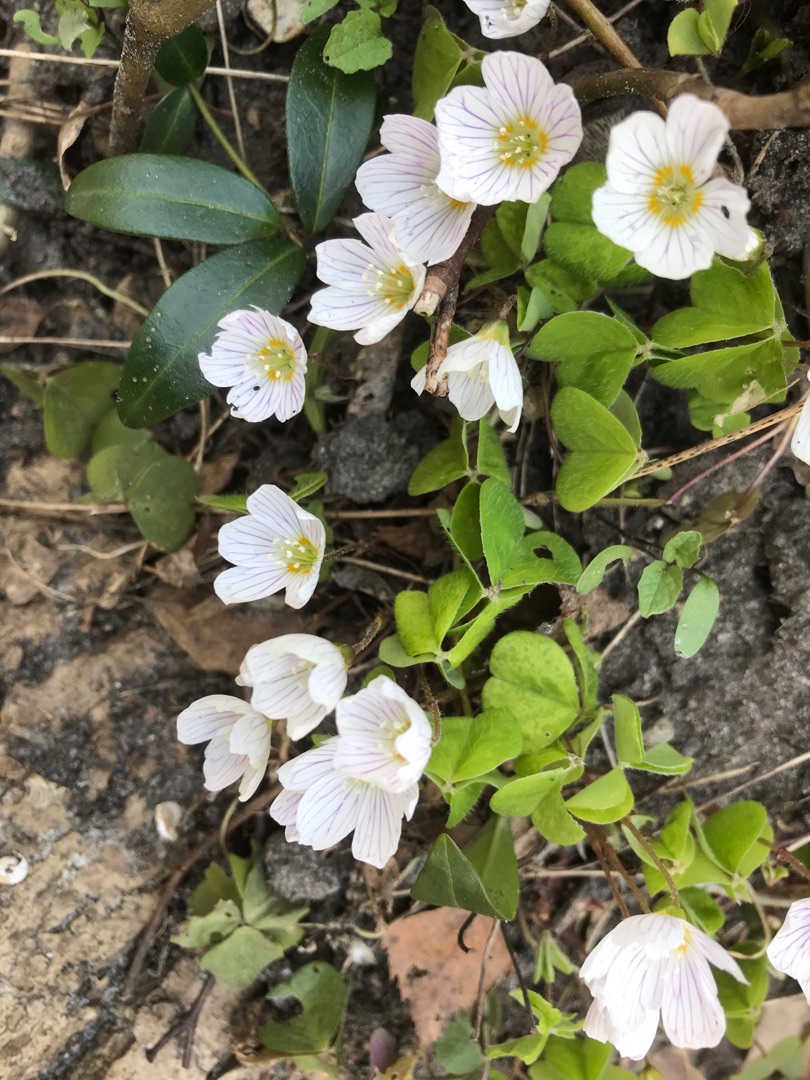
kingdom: Plantae
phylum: Tracheophyta
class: Magnoliopsida
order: Oxalidales
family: Oxalidaceae
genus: Oxalis
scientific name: Oxalis acetosella
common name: Skovsyre
